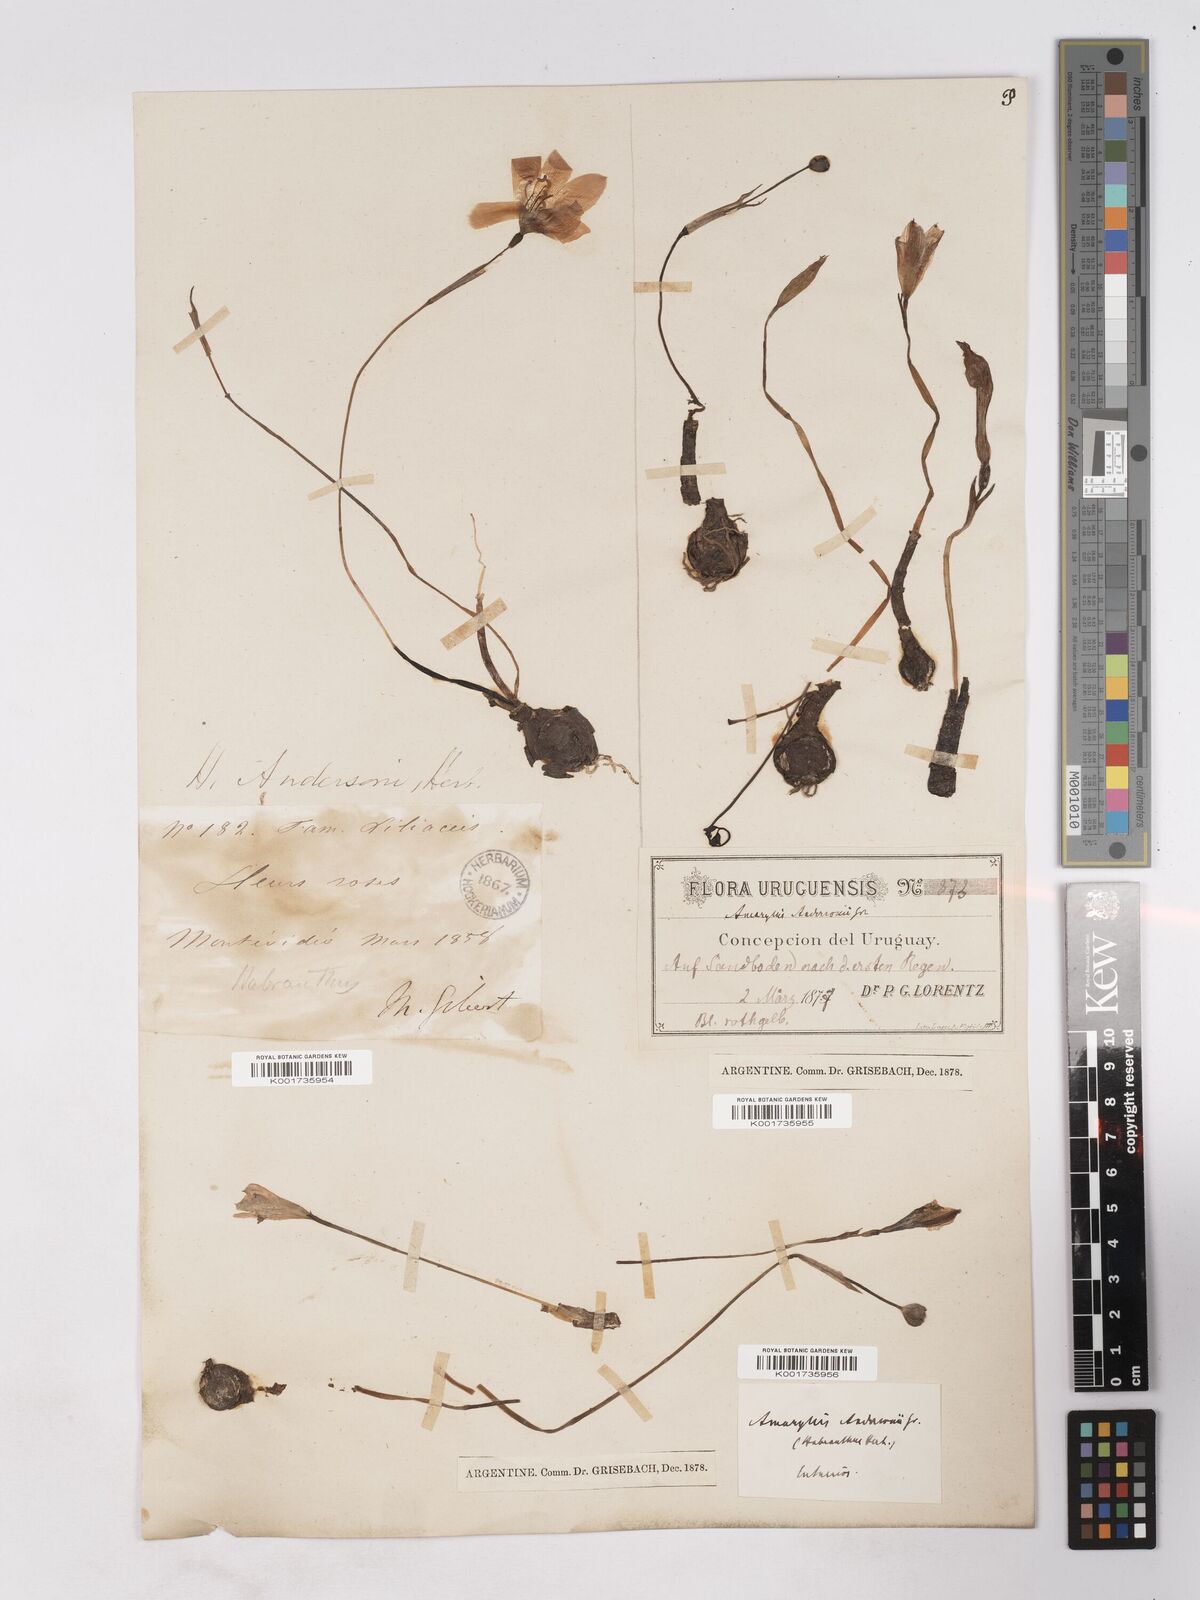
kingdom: Plantae
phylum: Tracheophyta
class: Liliopsida
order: Asparagales
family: Amaryllidaceae
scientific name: Amaryllidaceae
